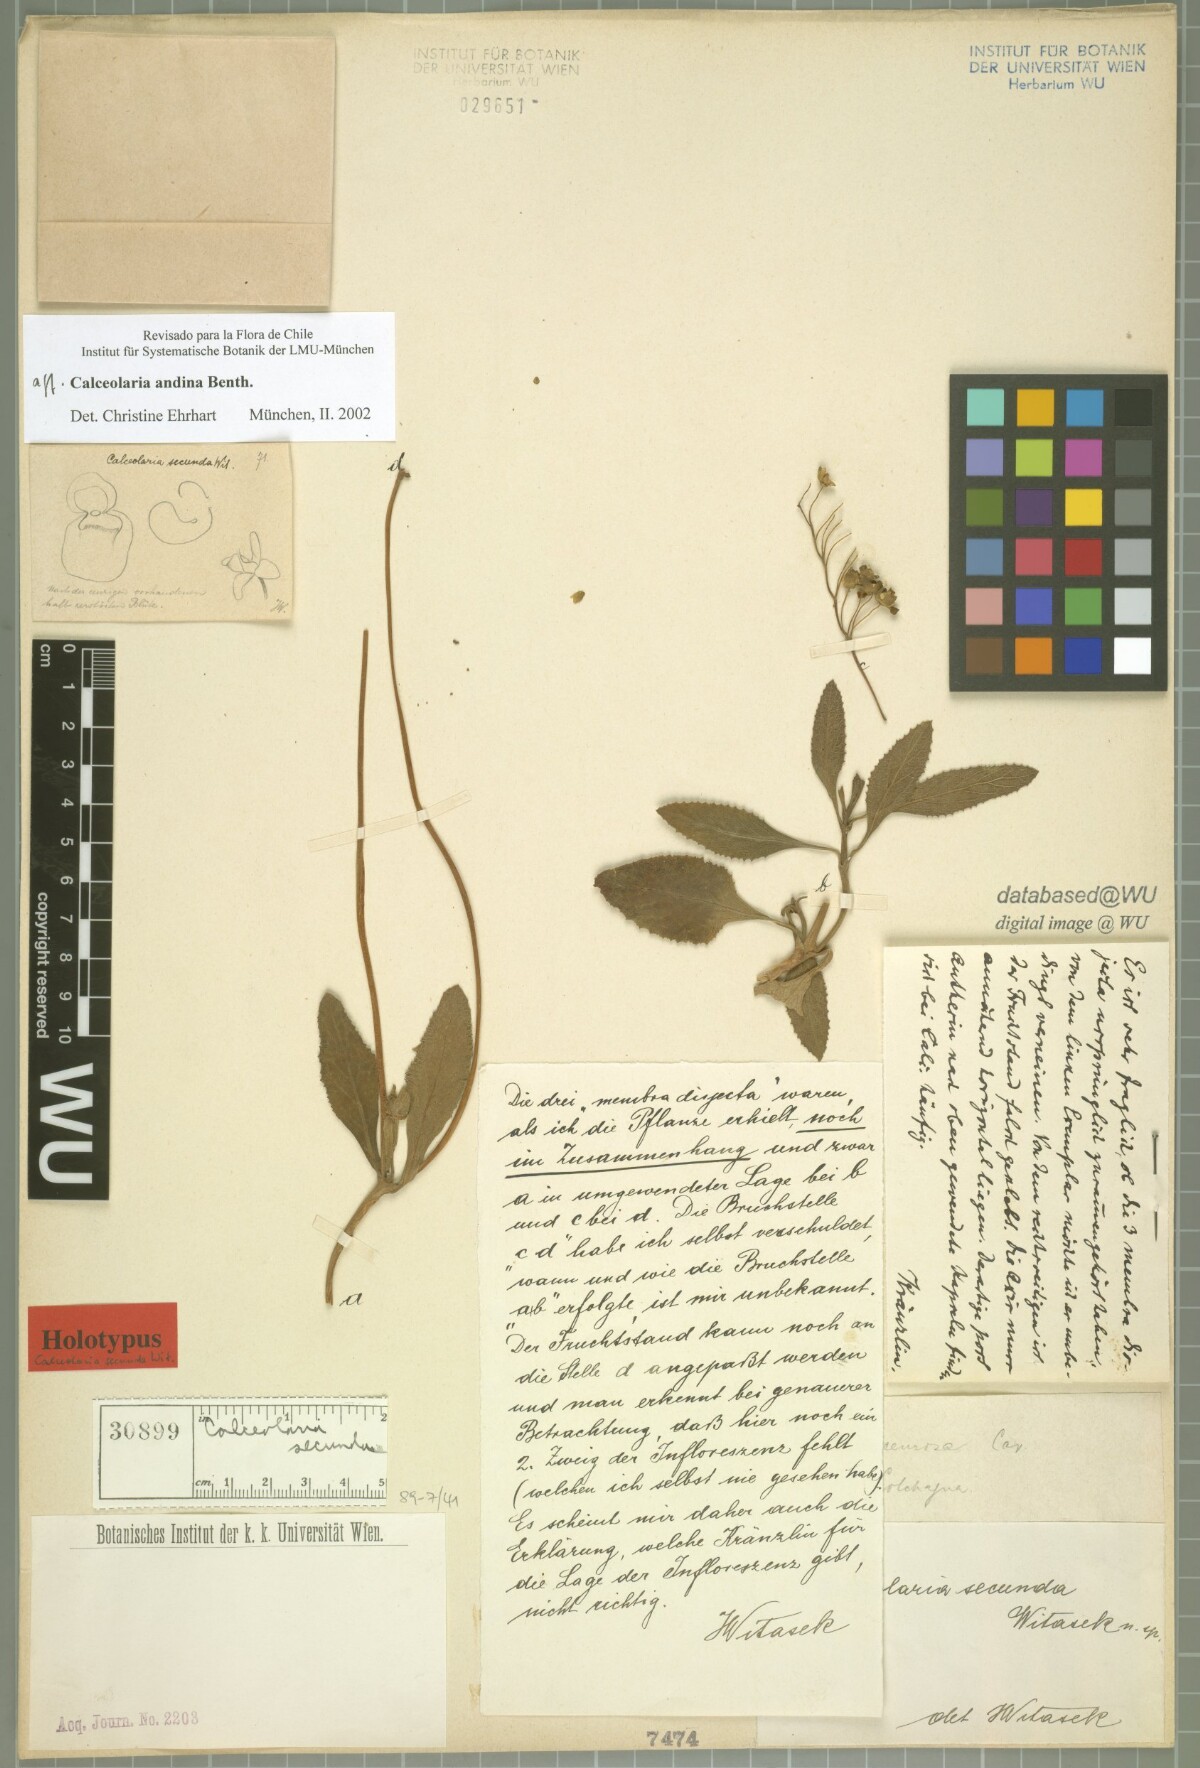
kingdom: Plantae
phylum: Tracheophyta
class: Magnoliopsida
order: Lamiales
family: Calceolariaceae
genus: Calceolaria
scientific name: Calceolaria andina
